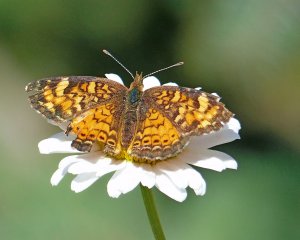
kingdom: Animalia
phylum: Arthropoda
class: Insecta
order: Lepidoptera
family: Nymphalidae
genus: Phyciodes
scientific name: Phyciodes tharos
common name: Northern Crescent
